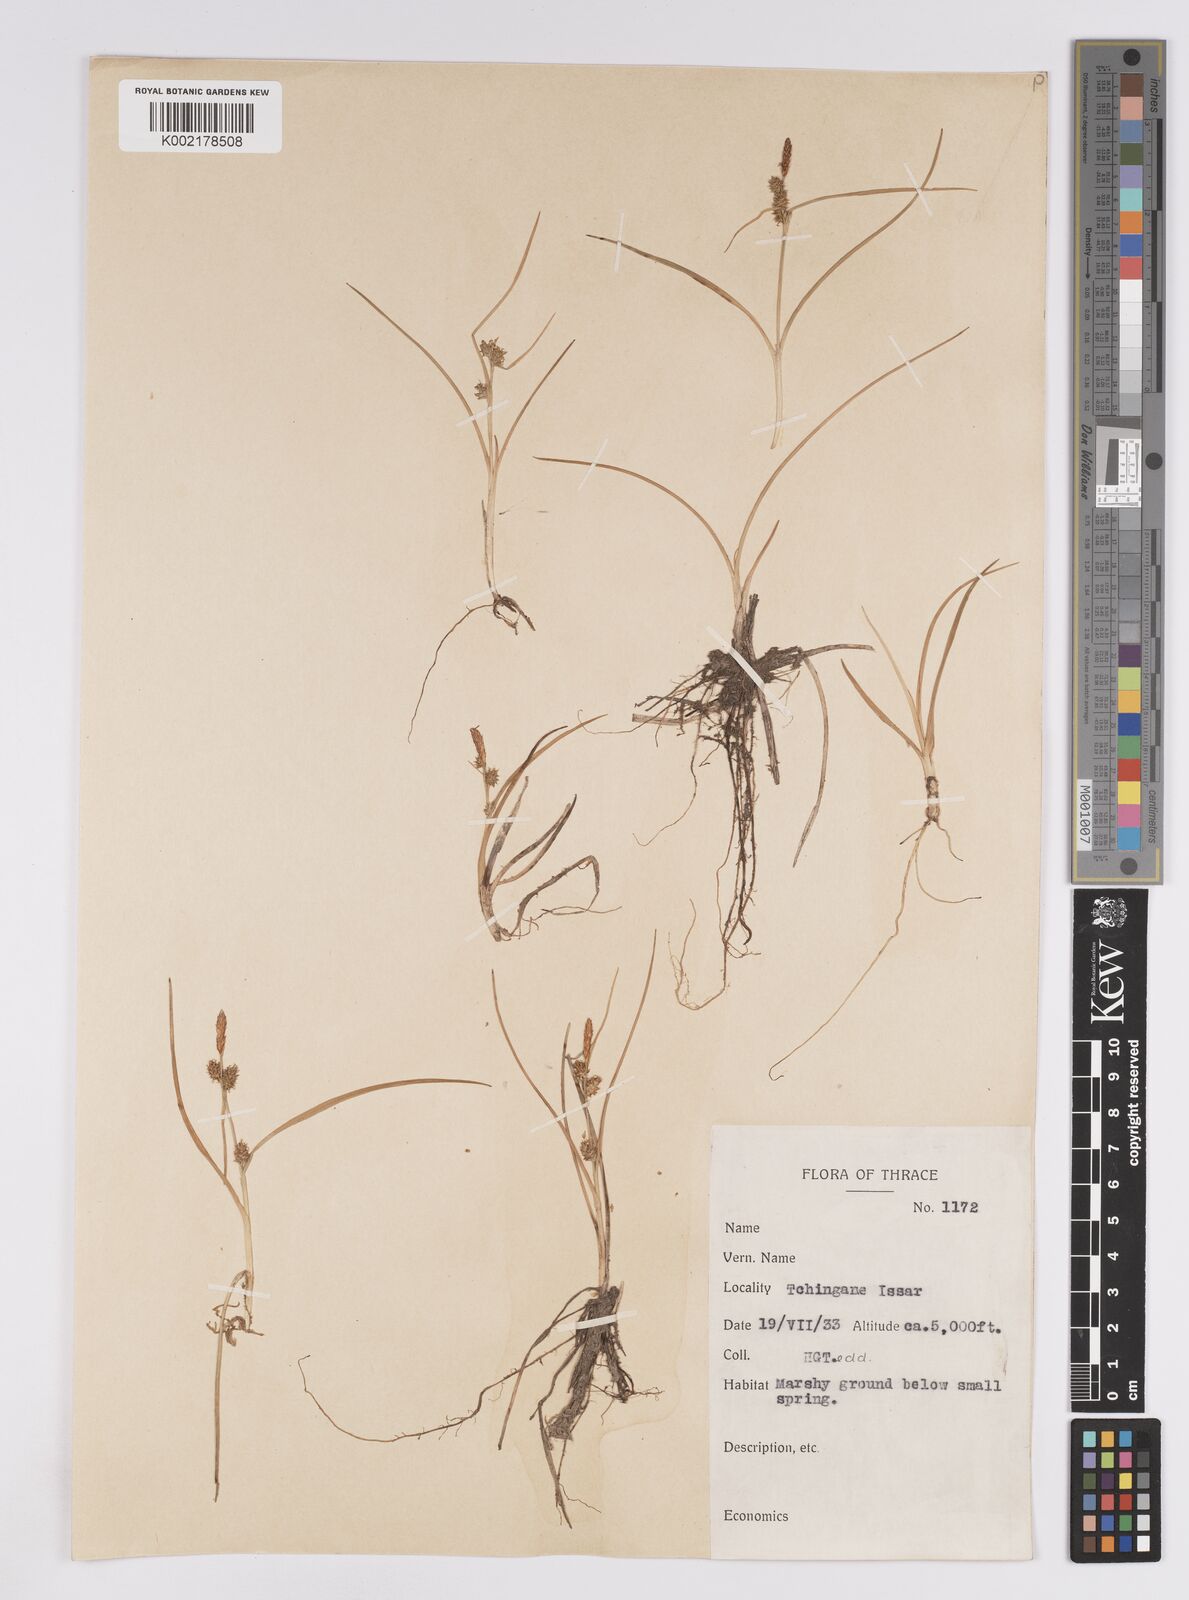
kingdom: Plantae
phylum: Tracheophyta
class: Liliopsida
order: Poales
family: Cyperaceae
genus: Carex
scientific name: Carex demissa
